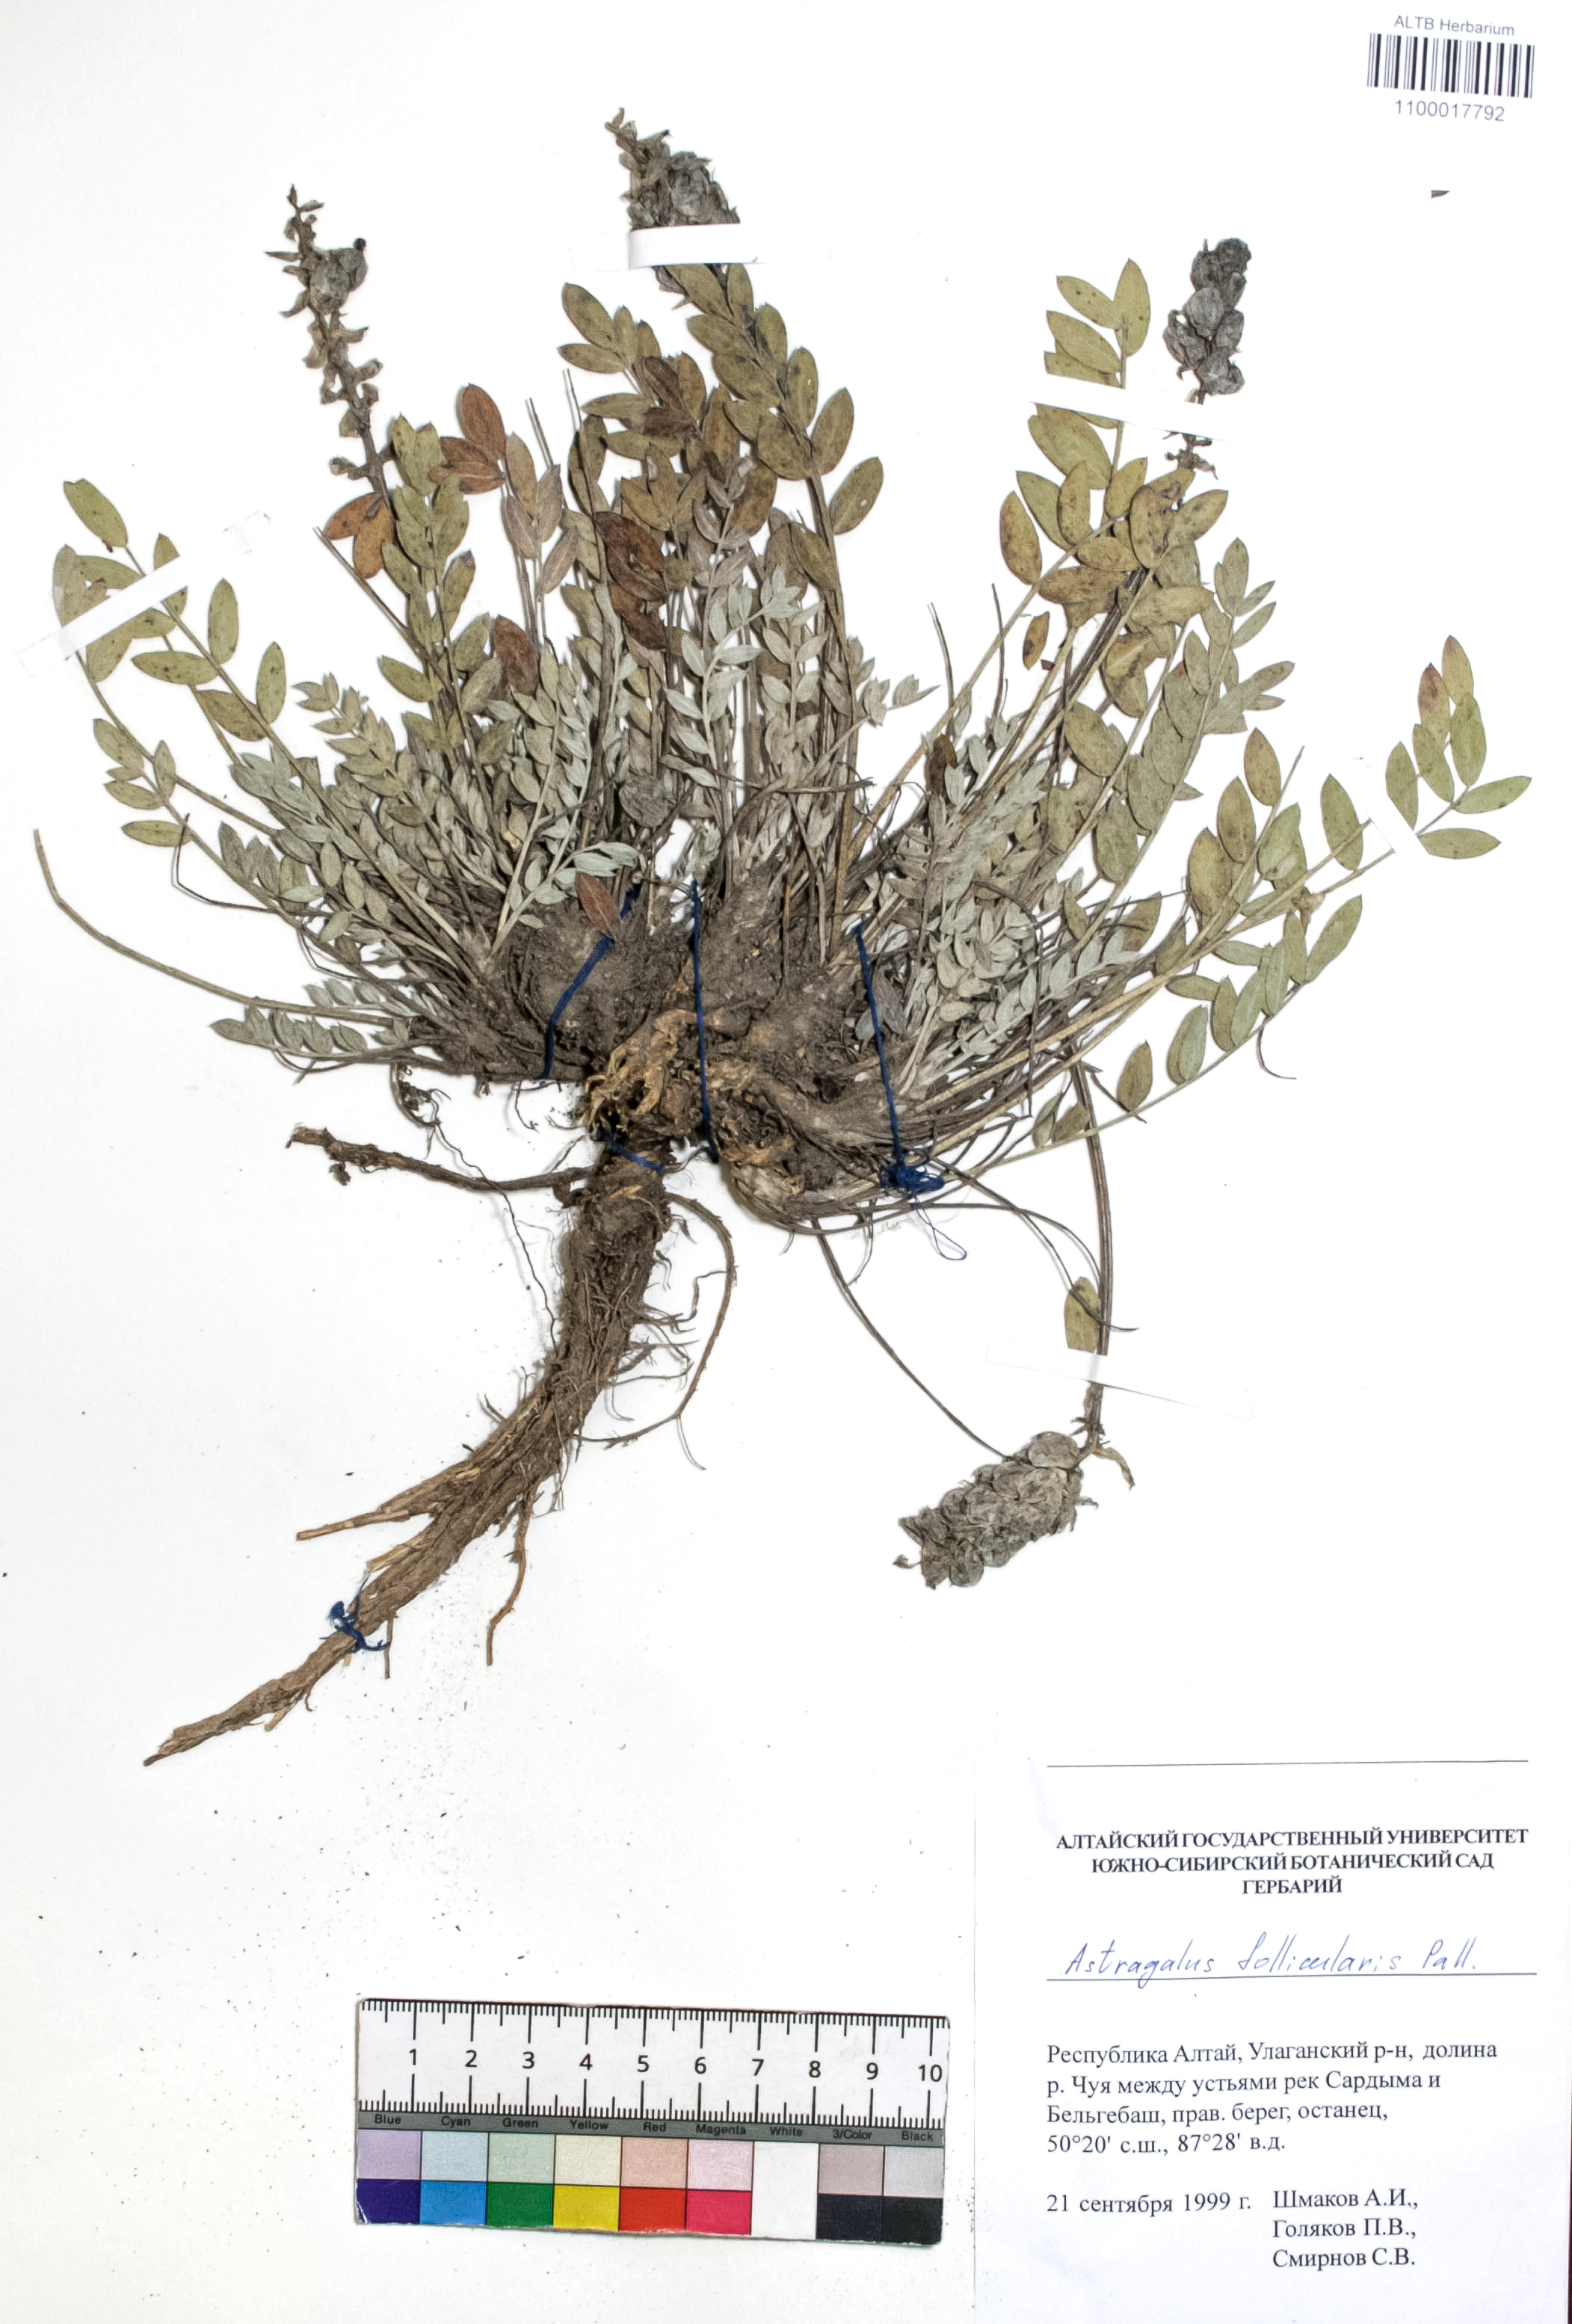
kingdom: Plantae
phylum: Tracheophyta
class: Magnoliopsida
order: Fabales
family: Fabaceae
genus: Astragalus
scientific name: Astragalus follicularis
